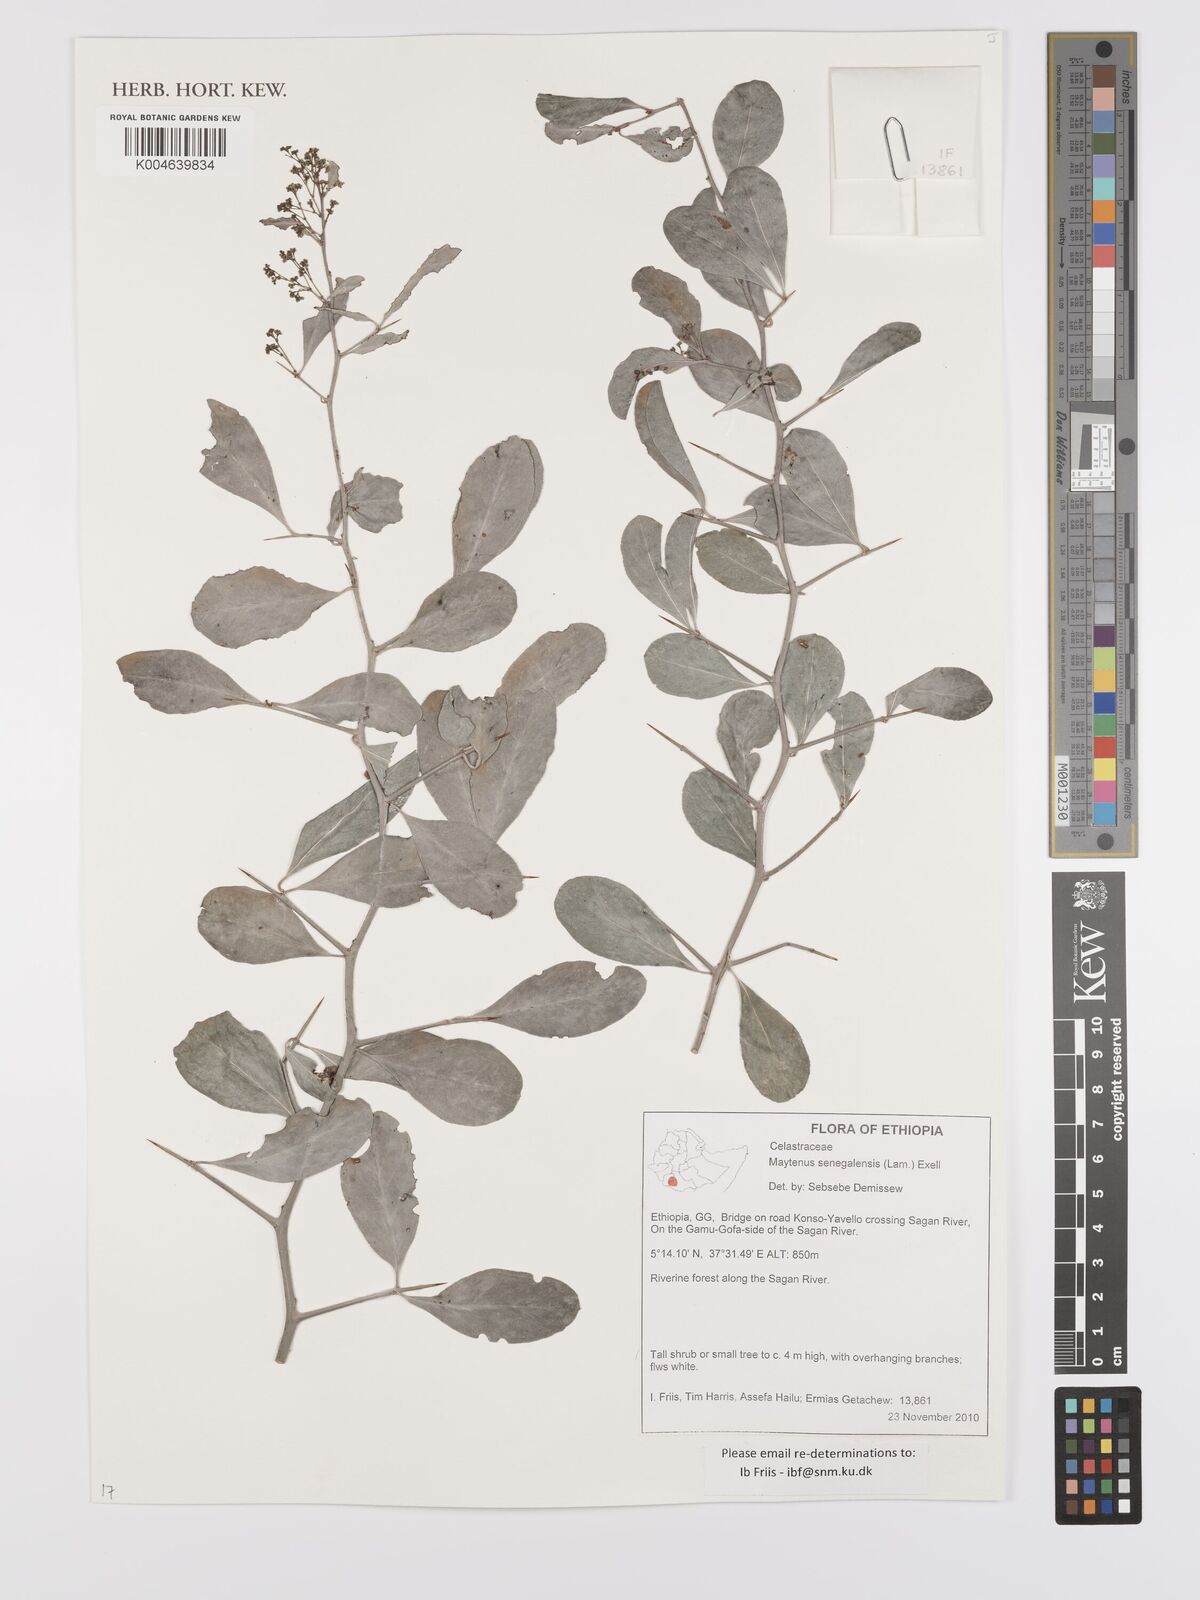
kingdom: Plantae
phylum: Tracheophyta
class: Magnoliopsida
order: Celastrales
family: Celastraceae
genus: Gymnosporia
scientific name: Gymnosporia senegalensis
